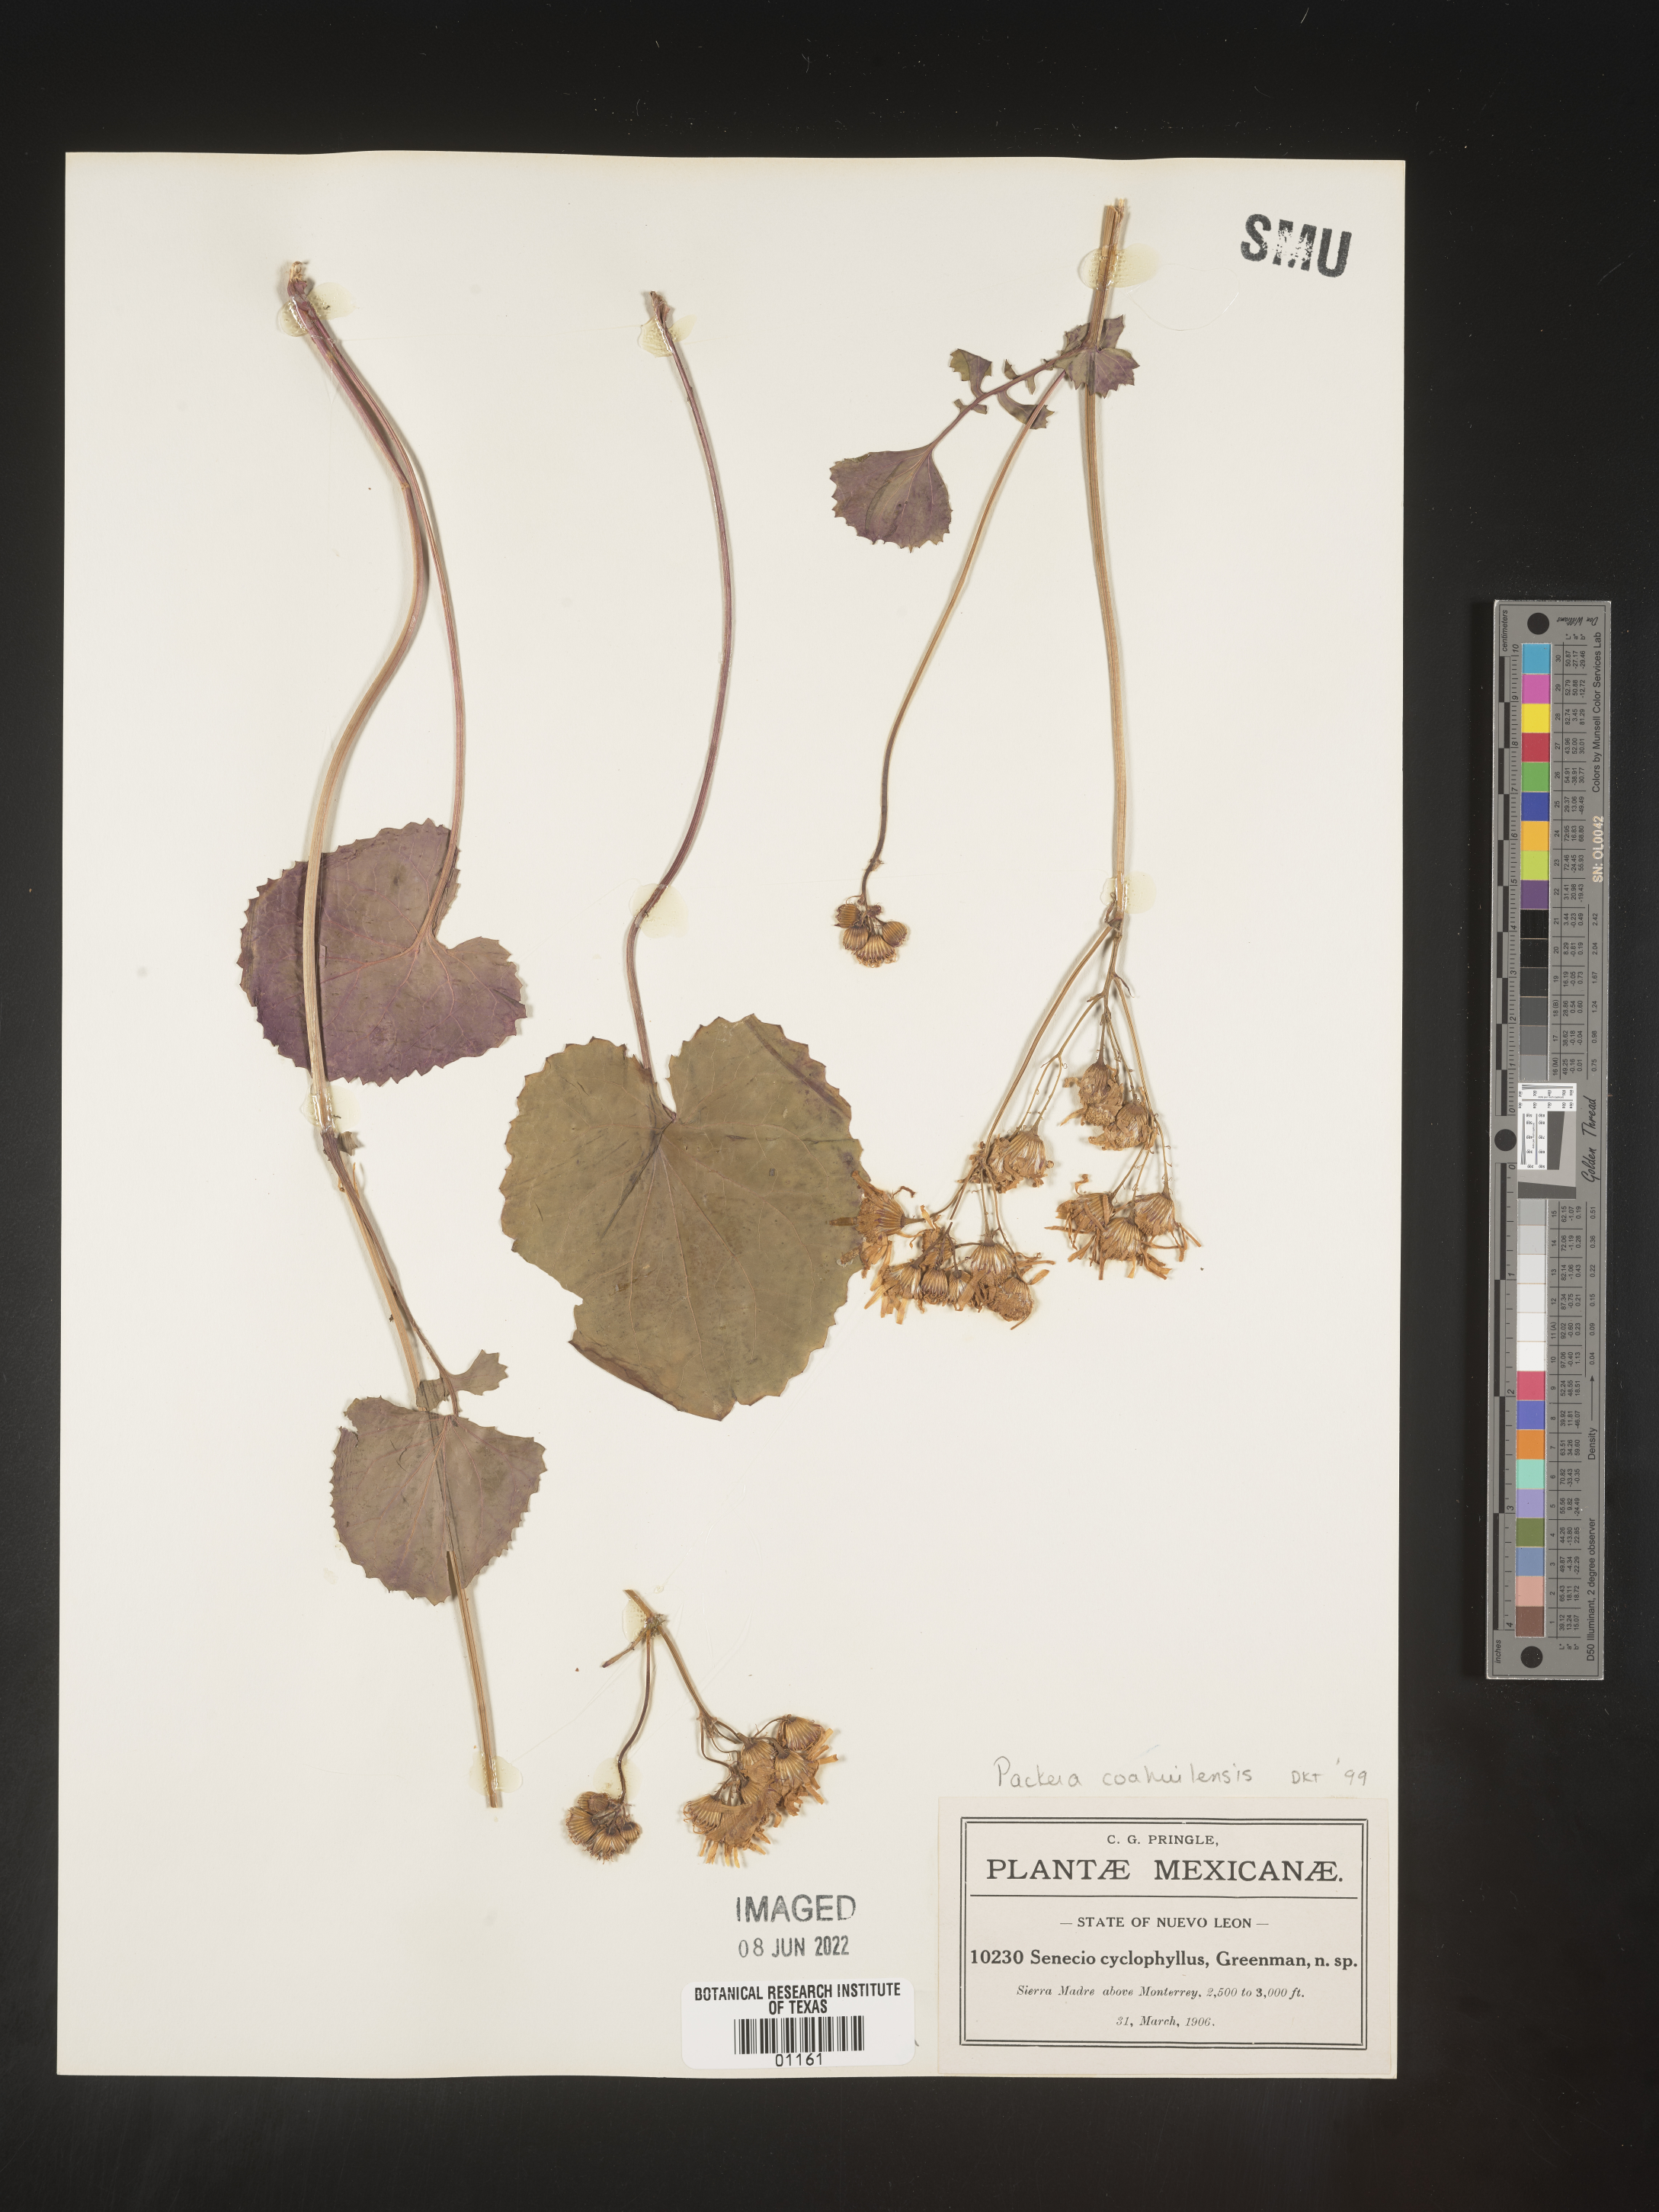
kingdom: Plantae
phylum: Tracheophyta
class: Magnoliopsida
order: Asterales
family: Asteraceae
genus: Packera
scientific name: Packera
